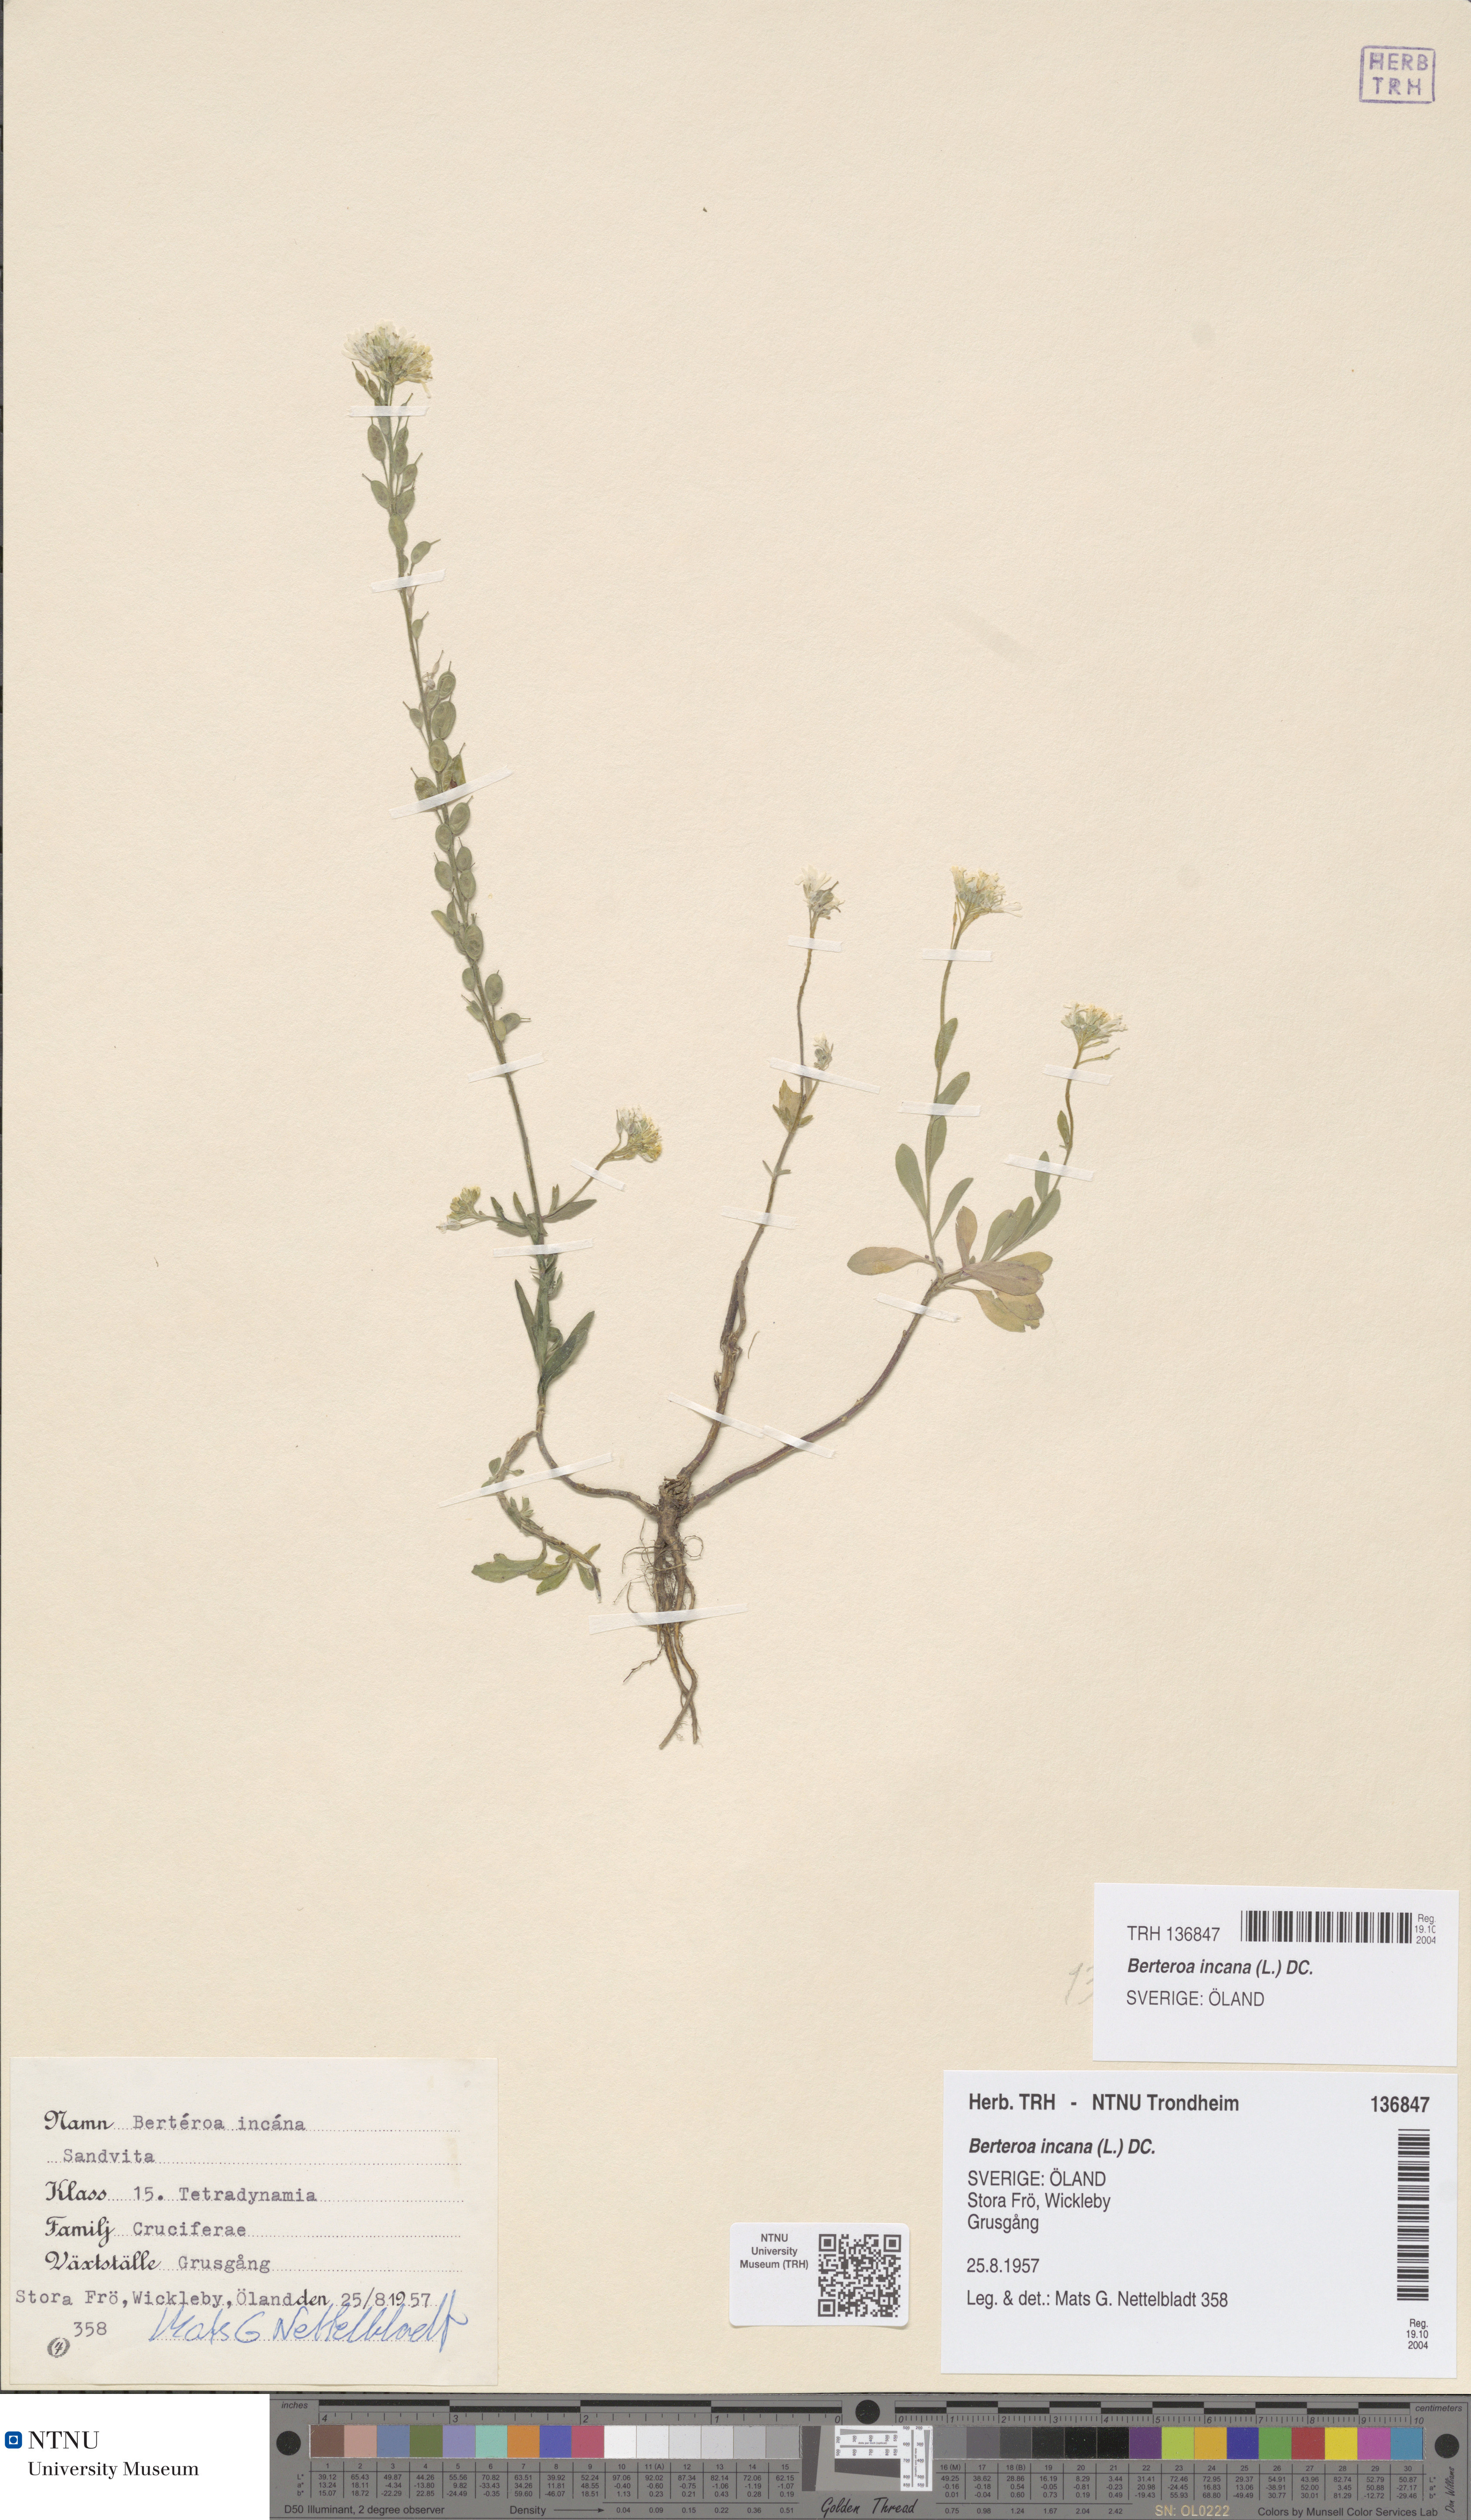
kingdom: Plantae
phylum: Tracheophyta
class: Magnoliopsida
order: Brassicales
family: Brassicaceae
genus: Berteroa
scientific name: Berteroa incana
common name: Hoary alison
